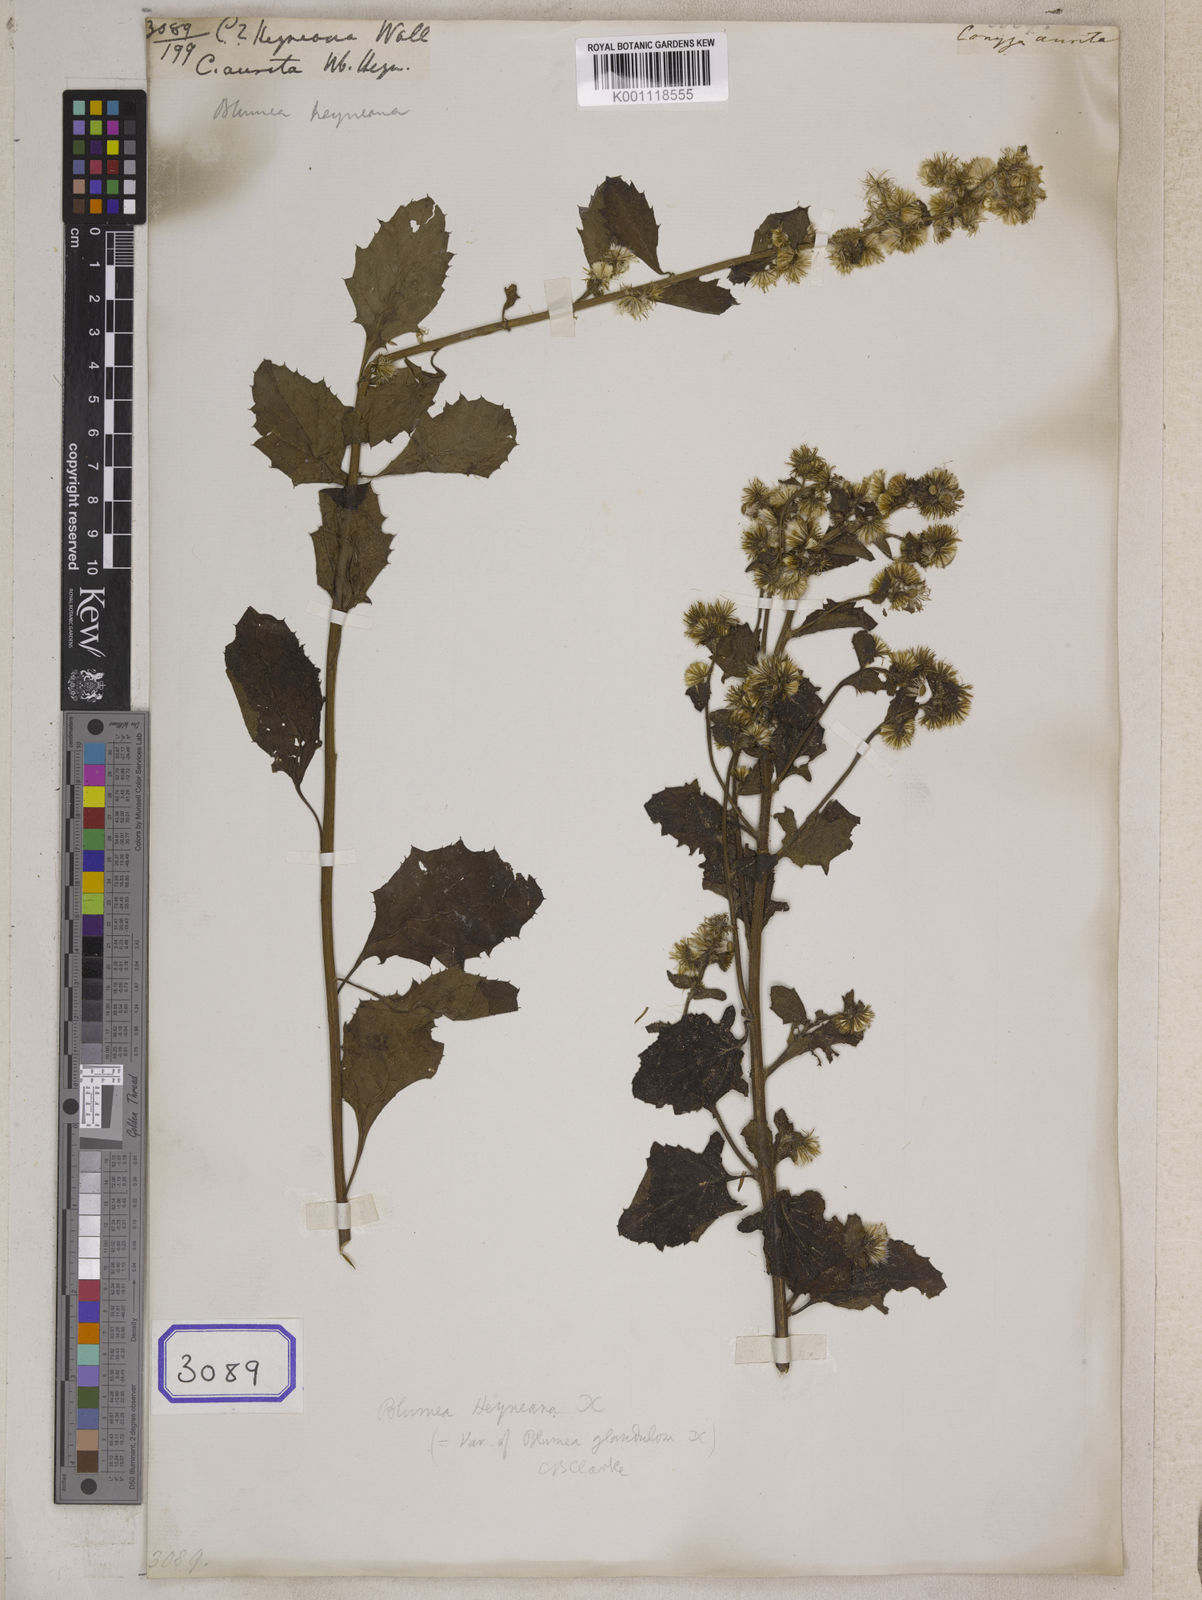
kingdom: Plantae
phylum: Tracheophyta
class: Magnoliopsida
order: Asterales
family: Asteraceae
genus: Blumea
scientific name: Blumea lacera
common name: Malay blumea
